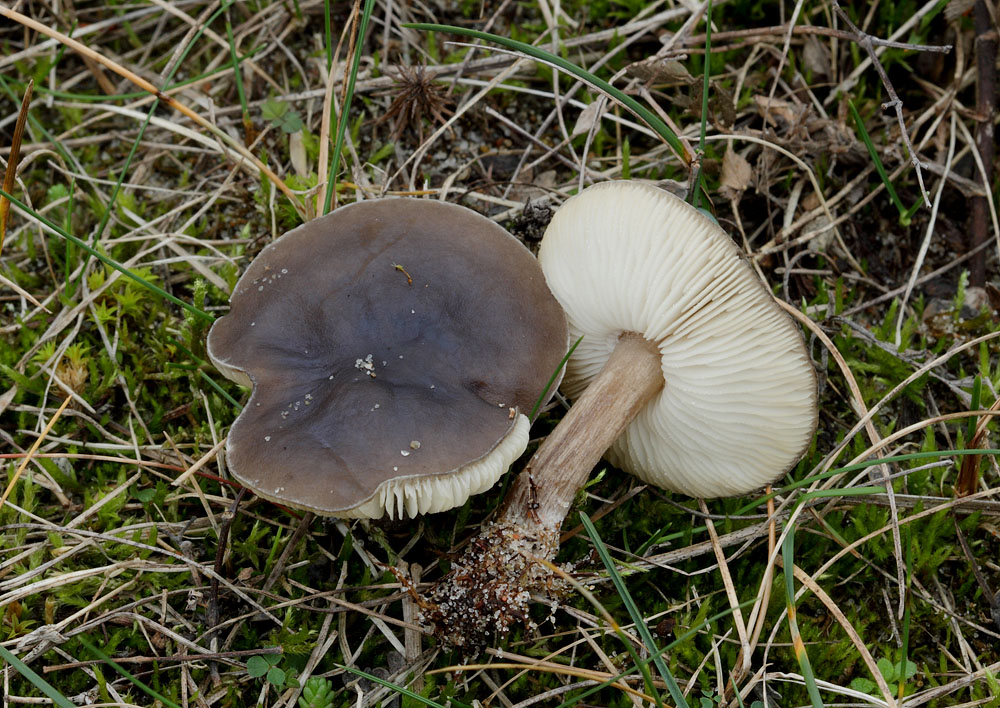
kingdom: Fungi
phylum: Basidiomycota
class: Agaricomycetes
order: Agaricales
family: Tricholomataceae
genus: Melanoleuca
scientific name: Melanoleuca oreina
